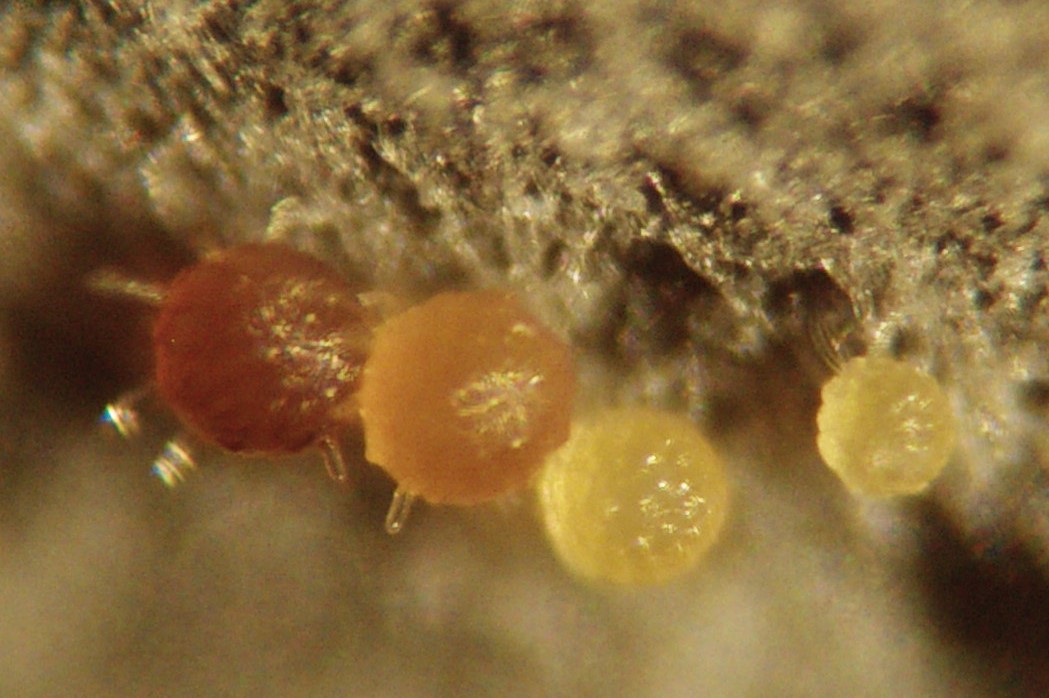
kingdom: Fungi
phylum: Ascomycota
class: Leotiomycetes
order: Helotiales
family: Erysiphaceae
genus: Erysiphe
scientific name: Erysiphe syringae-japonicae
